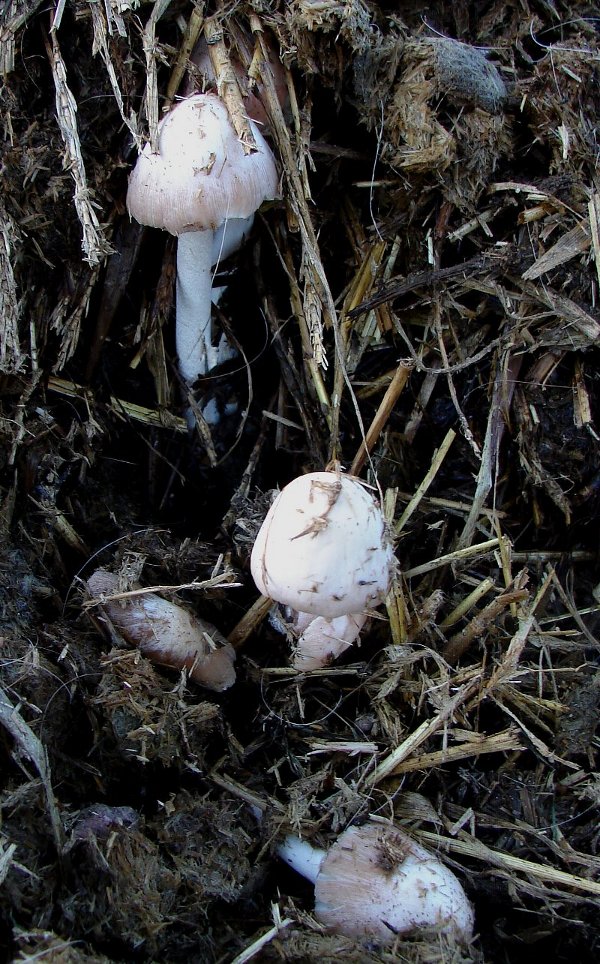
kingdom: Fungi
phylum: Basidiomycota
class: Agaricomycetes
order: Agaricales
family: Bolbitiaceae
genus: Bolbitius
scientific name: Bolbitius coprophilus
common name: rosa gulhat
